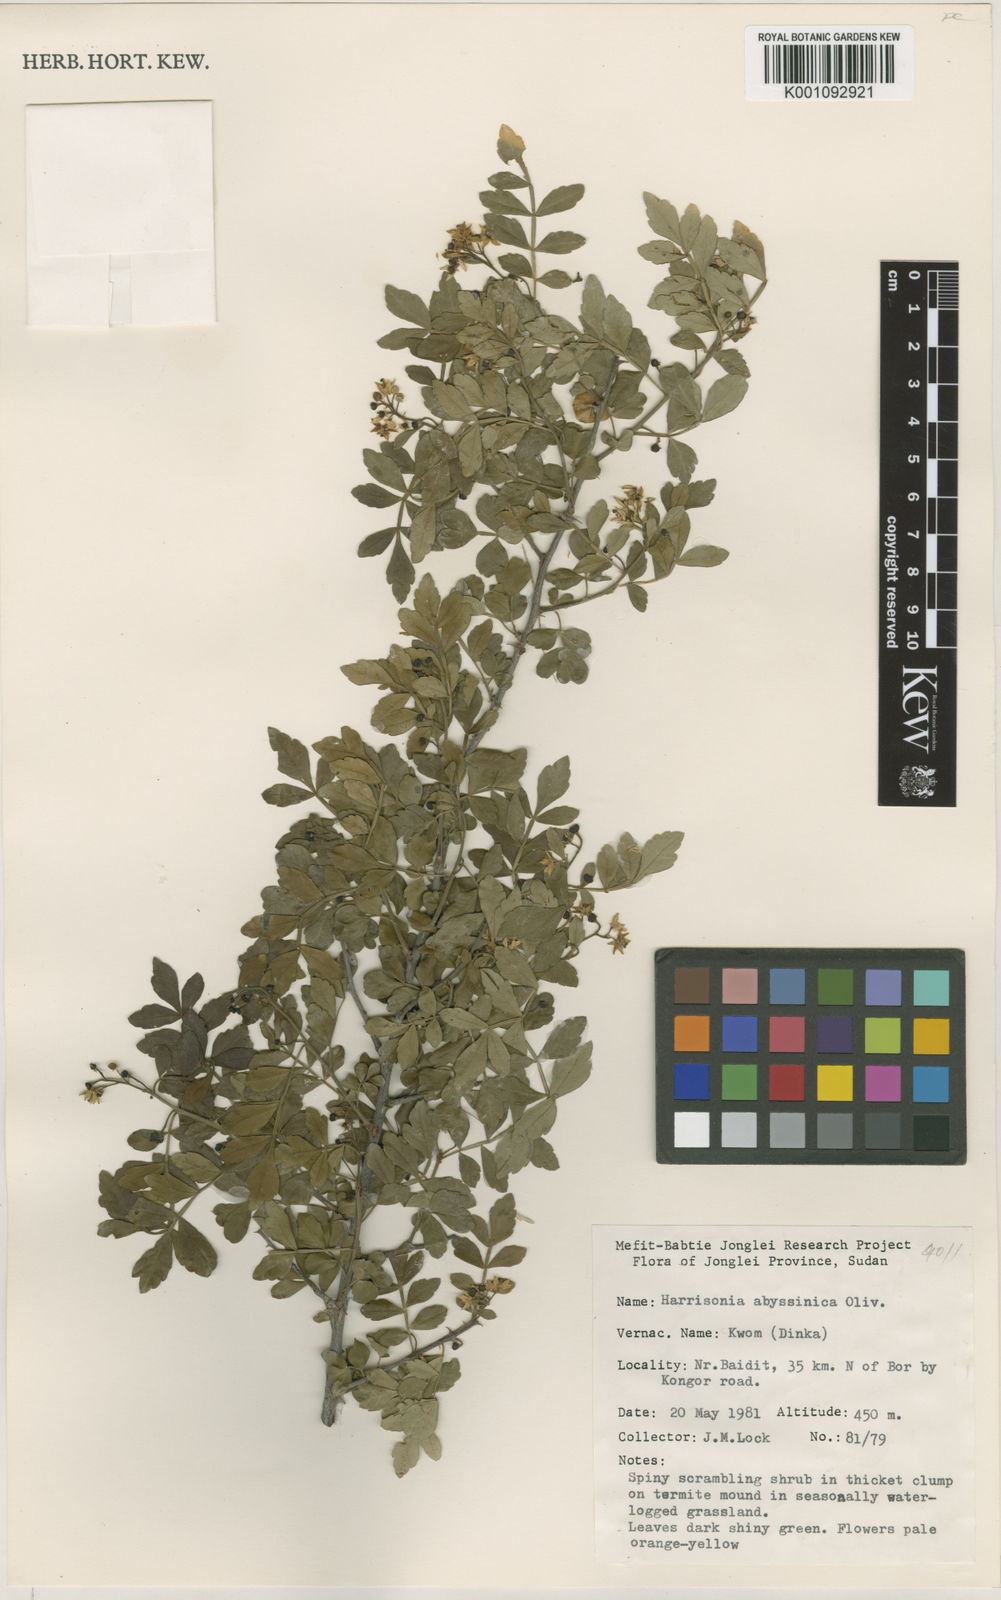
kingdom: Plantae
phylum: Tracheophyta
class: Magnoliopsida
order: Sapindales
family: Rutaceae
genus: Harrisonia
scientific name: Harrisonia abyssinica
